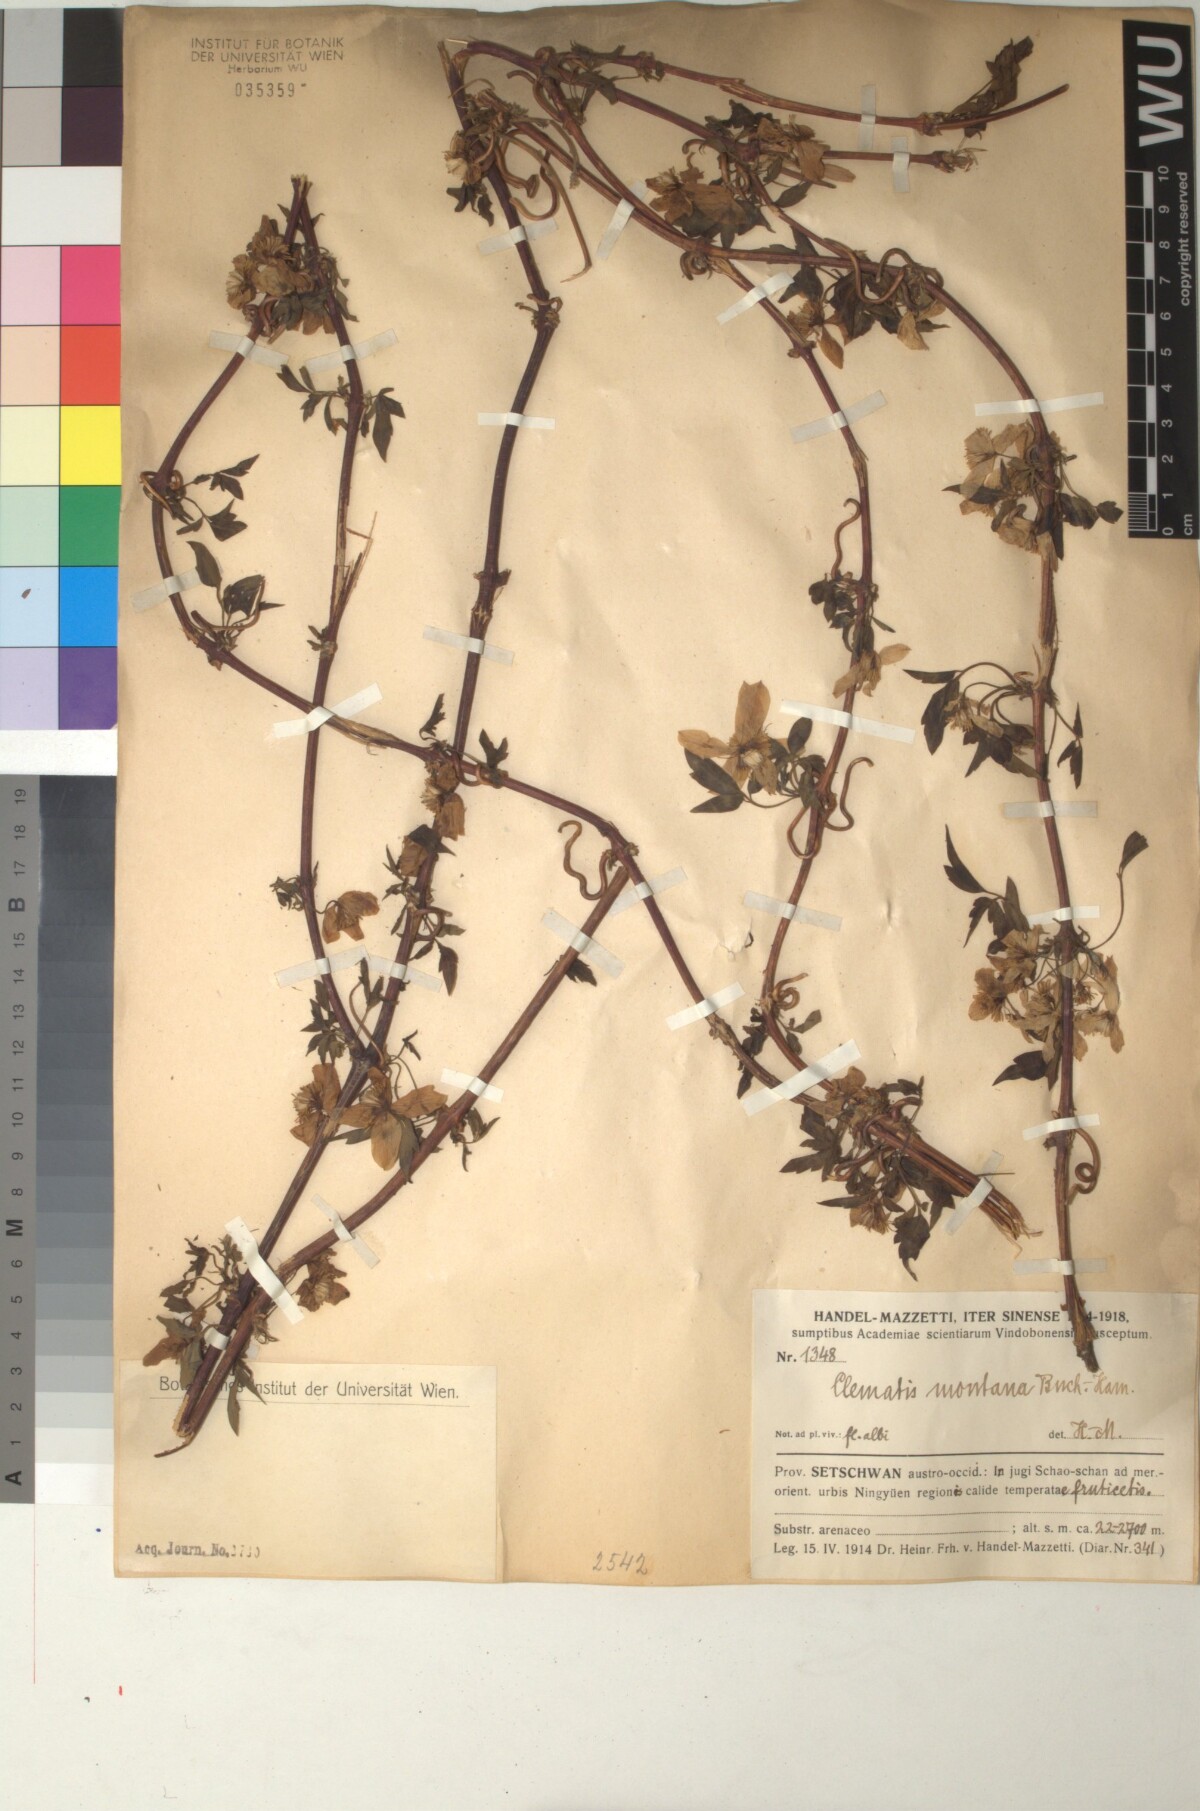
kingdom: Plantae
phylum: Tracheophyta
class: Magnoliopsida
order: Ranunculales
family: Ranunculaceae
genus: Clematis
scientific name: Clematis montana
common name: Himalayan clematis
